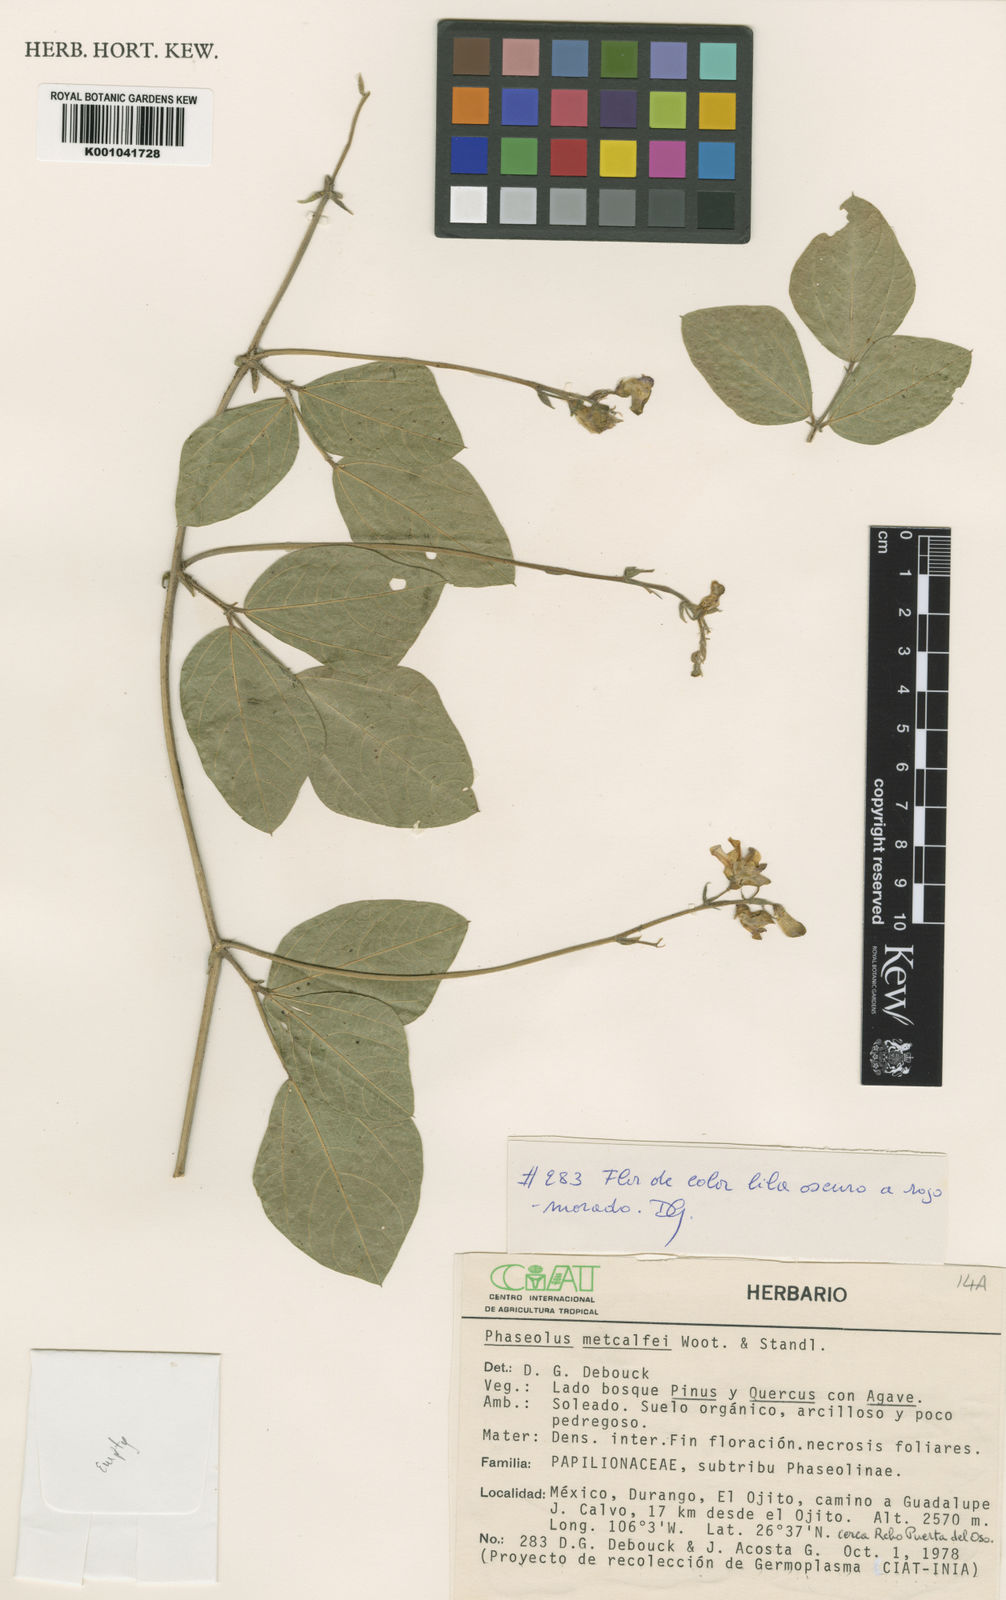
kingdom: Plantae
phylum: Tracheophyta
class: Magnoliopsida
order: Fabales
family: Fabaceae
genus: Phaseolus
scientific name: Phaseolus
